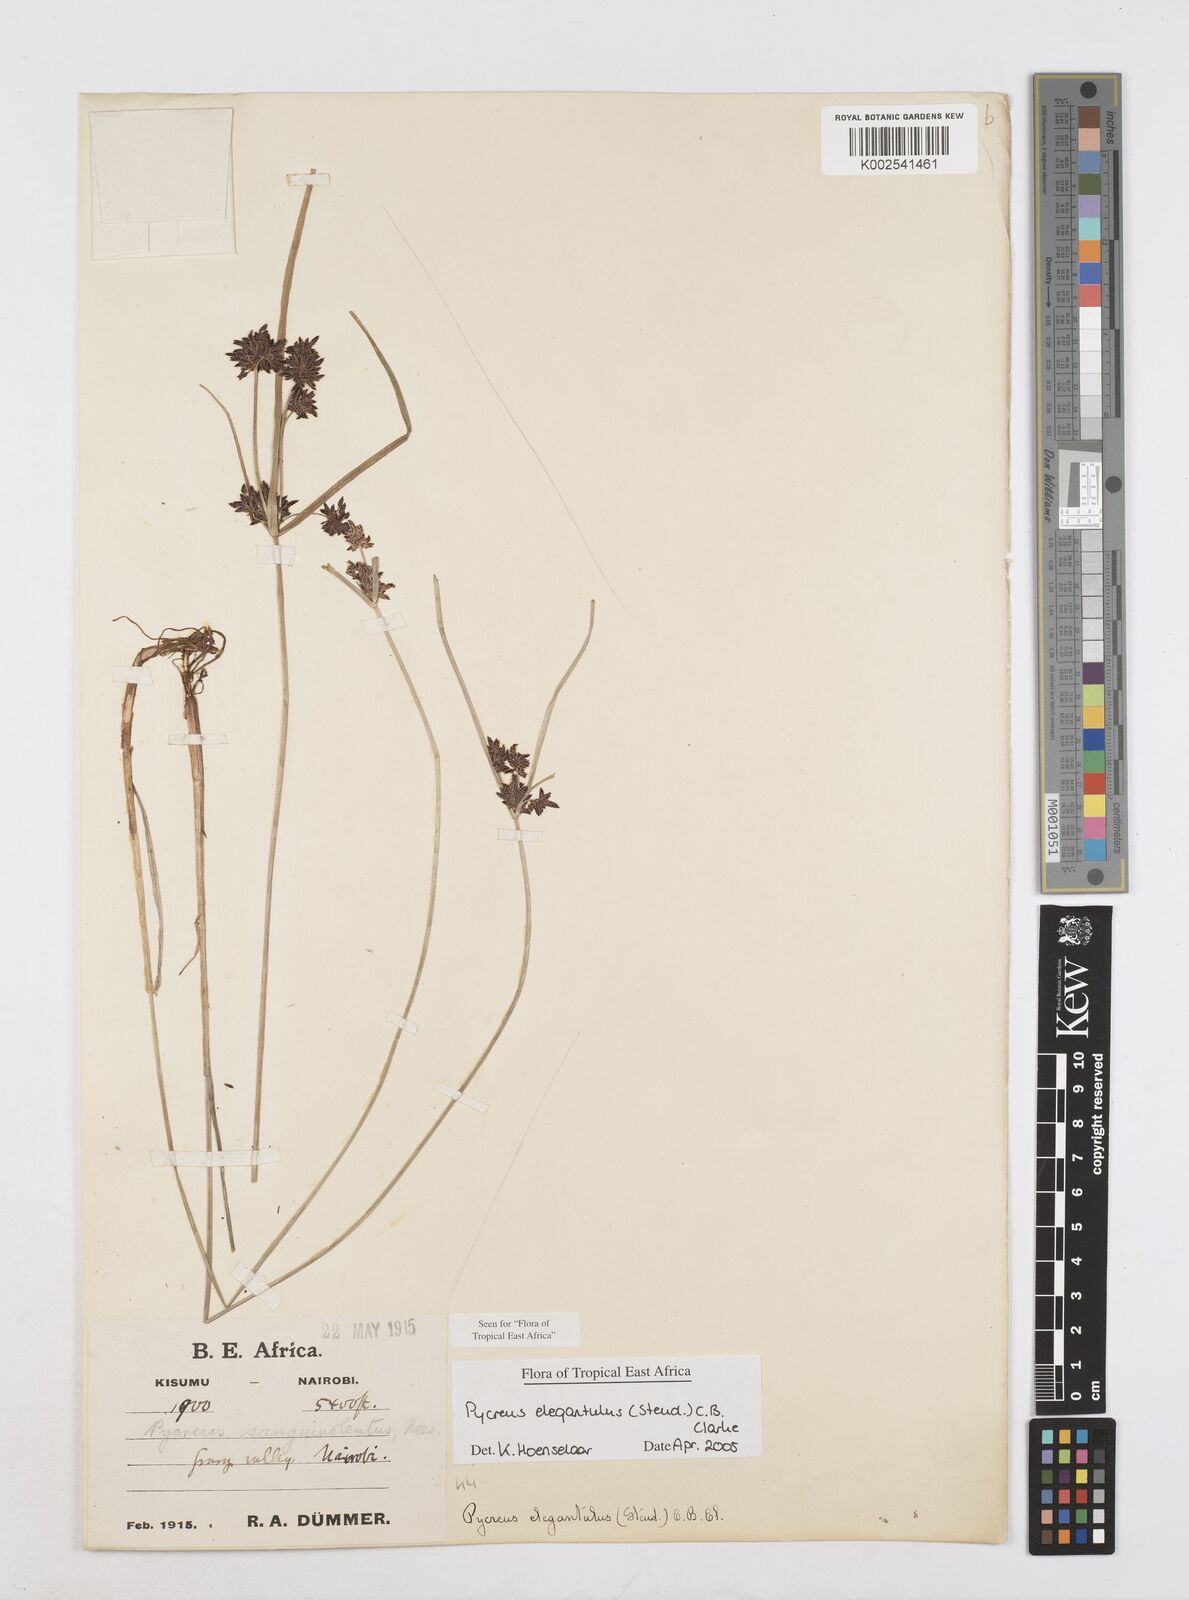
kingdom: Plantae
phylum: Tracheophyta
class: Liliopsida
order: Poales
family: Cyperaceae
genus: Cyperus
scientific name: Cyperus elegantulus
